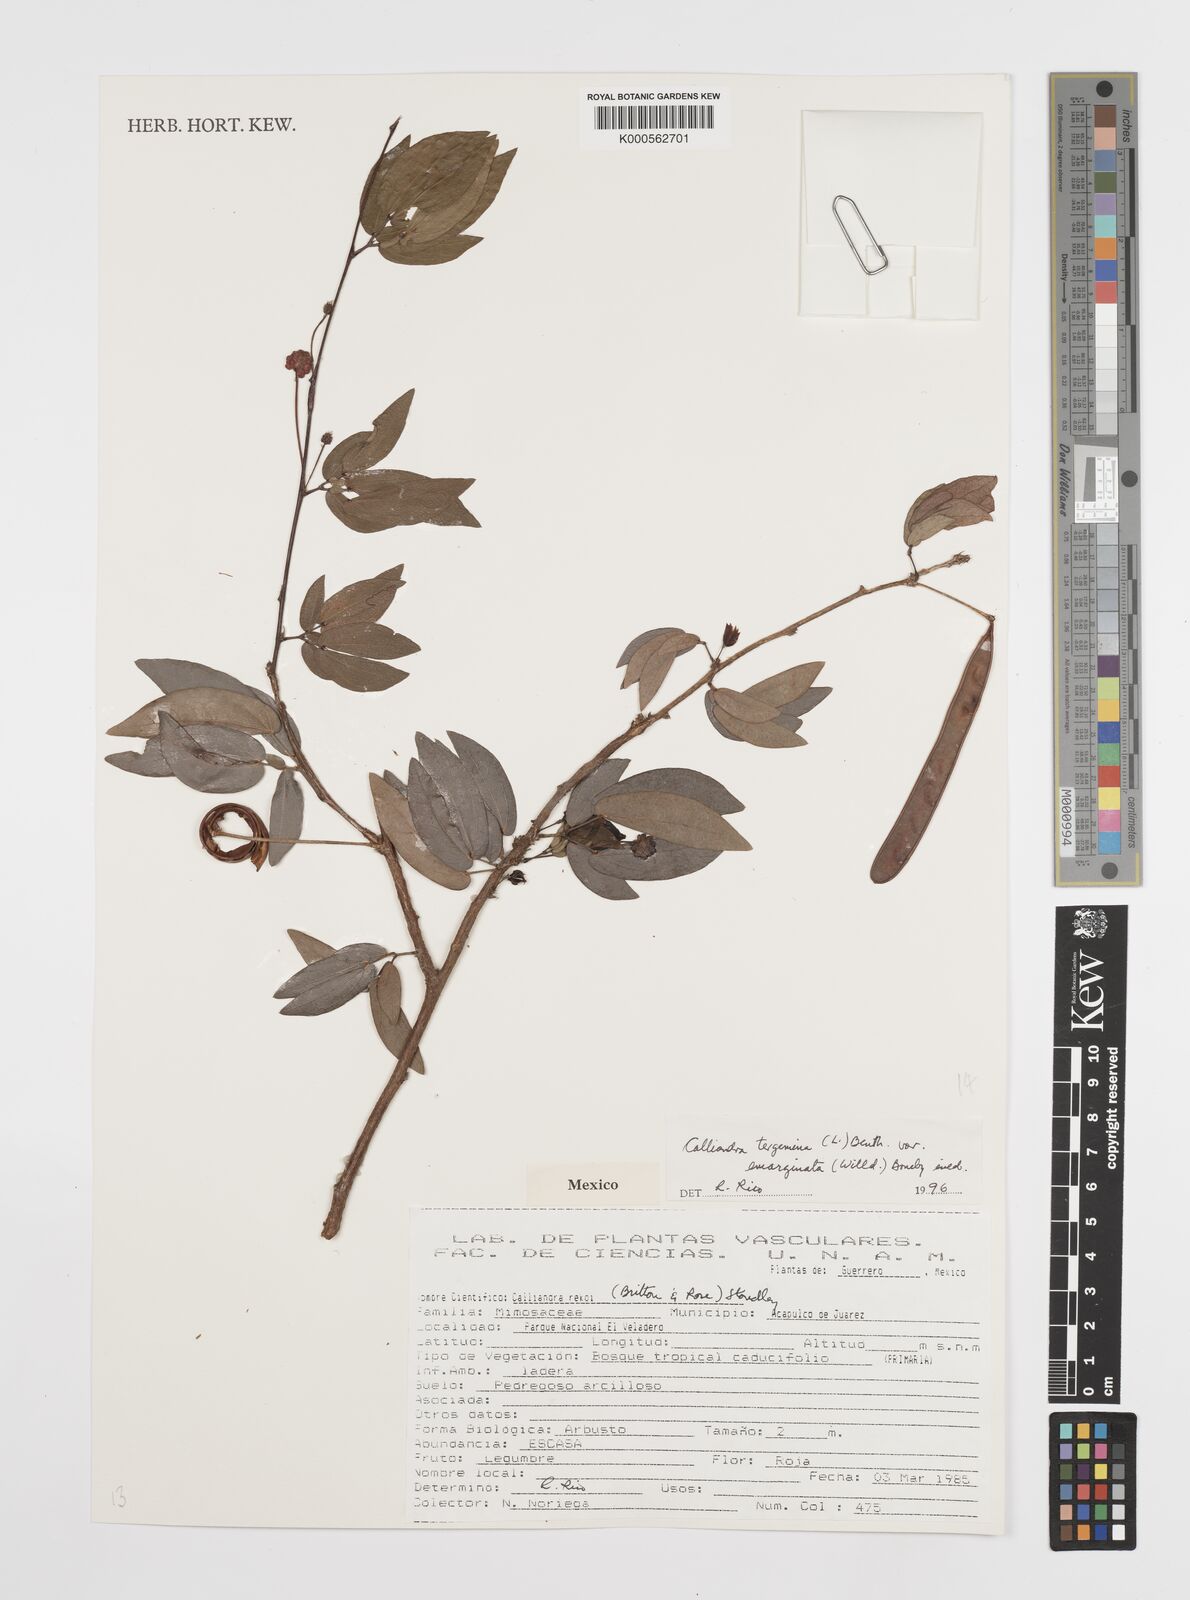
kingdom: Plantae
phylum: Tracheophyta
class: Magnoliopsida
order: Fabales
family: Fabaceae
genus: Calliandra
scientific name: Calliandra tergemina
